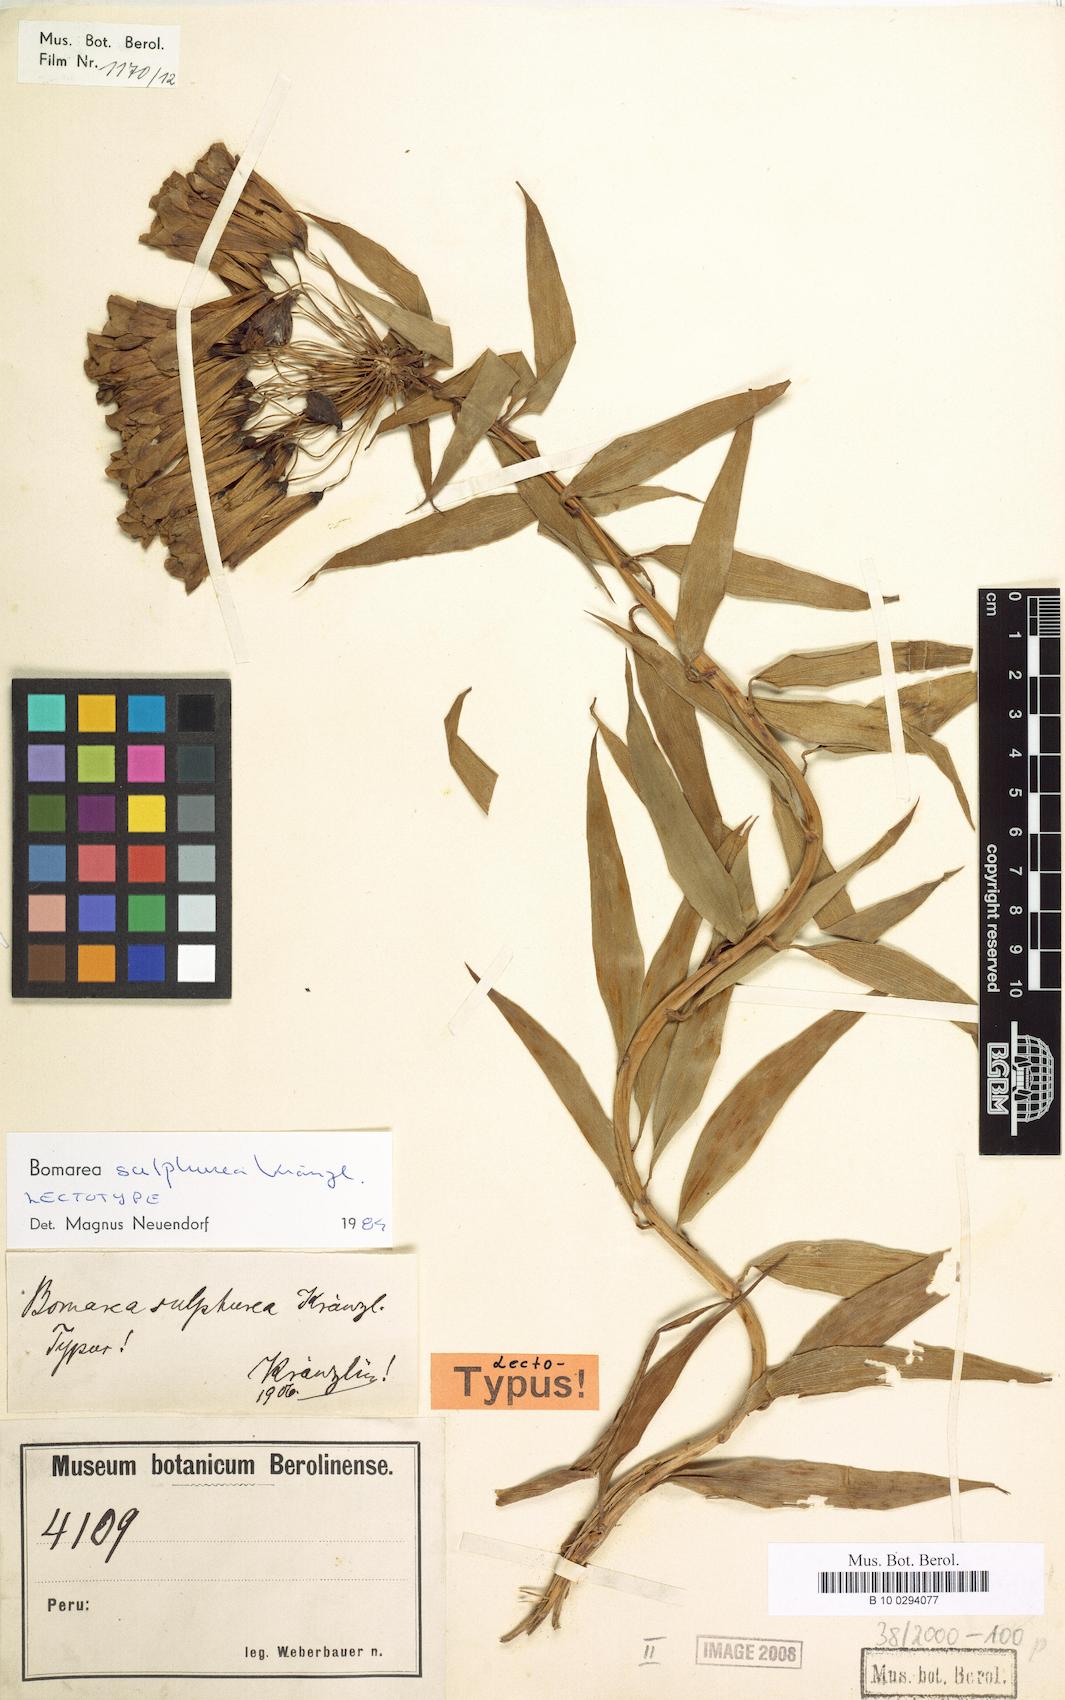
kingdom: Plantae
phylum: Tracheophyta
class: Liliopsida
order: Liliales
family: Alstroemeriaceae
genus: Bomarea
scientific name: Bomarea superba
